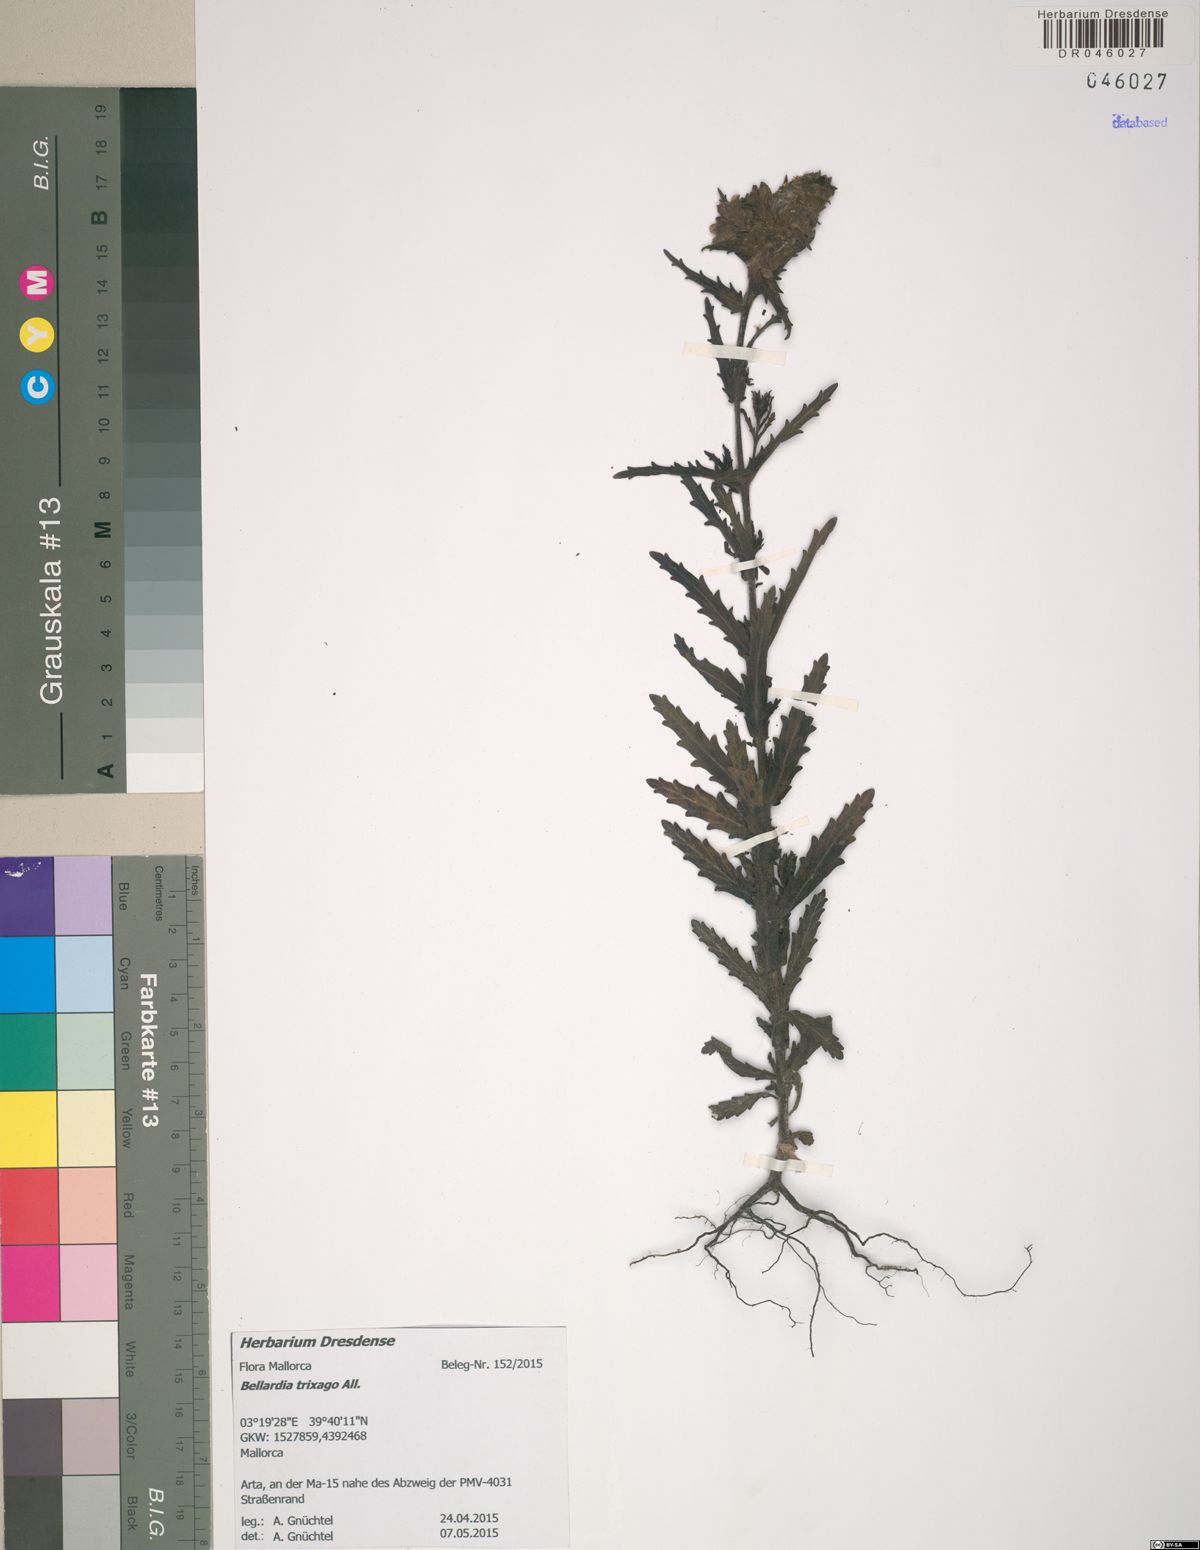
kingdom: Plantae
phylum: Tracheophyta
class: Magnoliopsida
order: Lamiales
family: Orobanchaceae
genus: Bellardia
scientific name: Bellardia trixago
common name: Mediterranean lineseed
